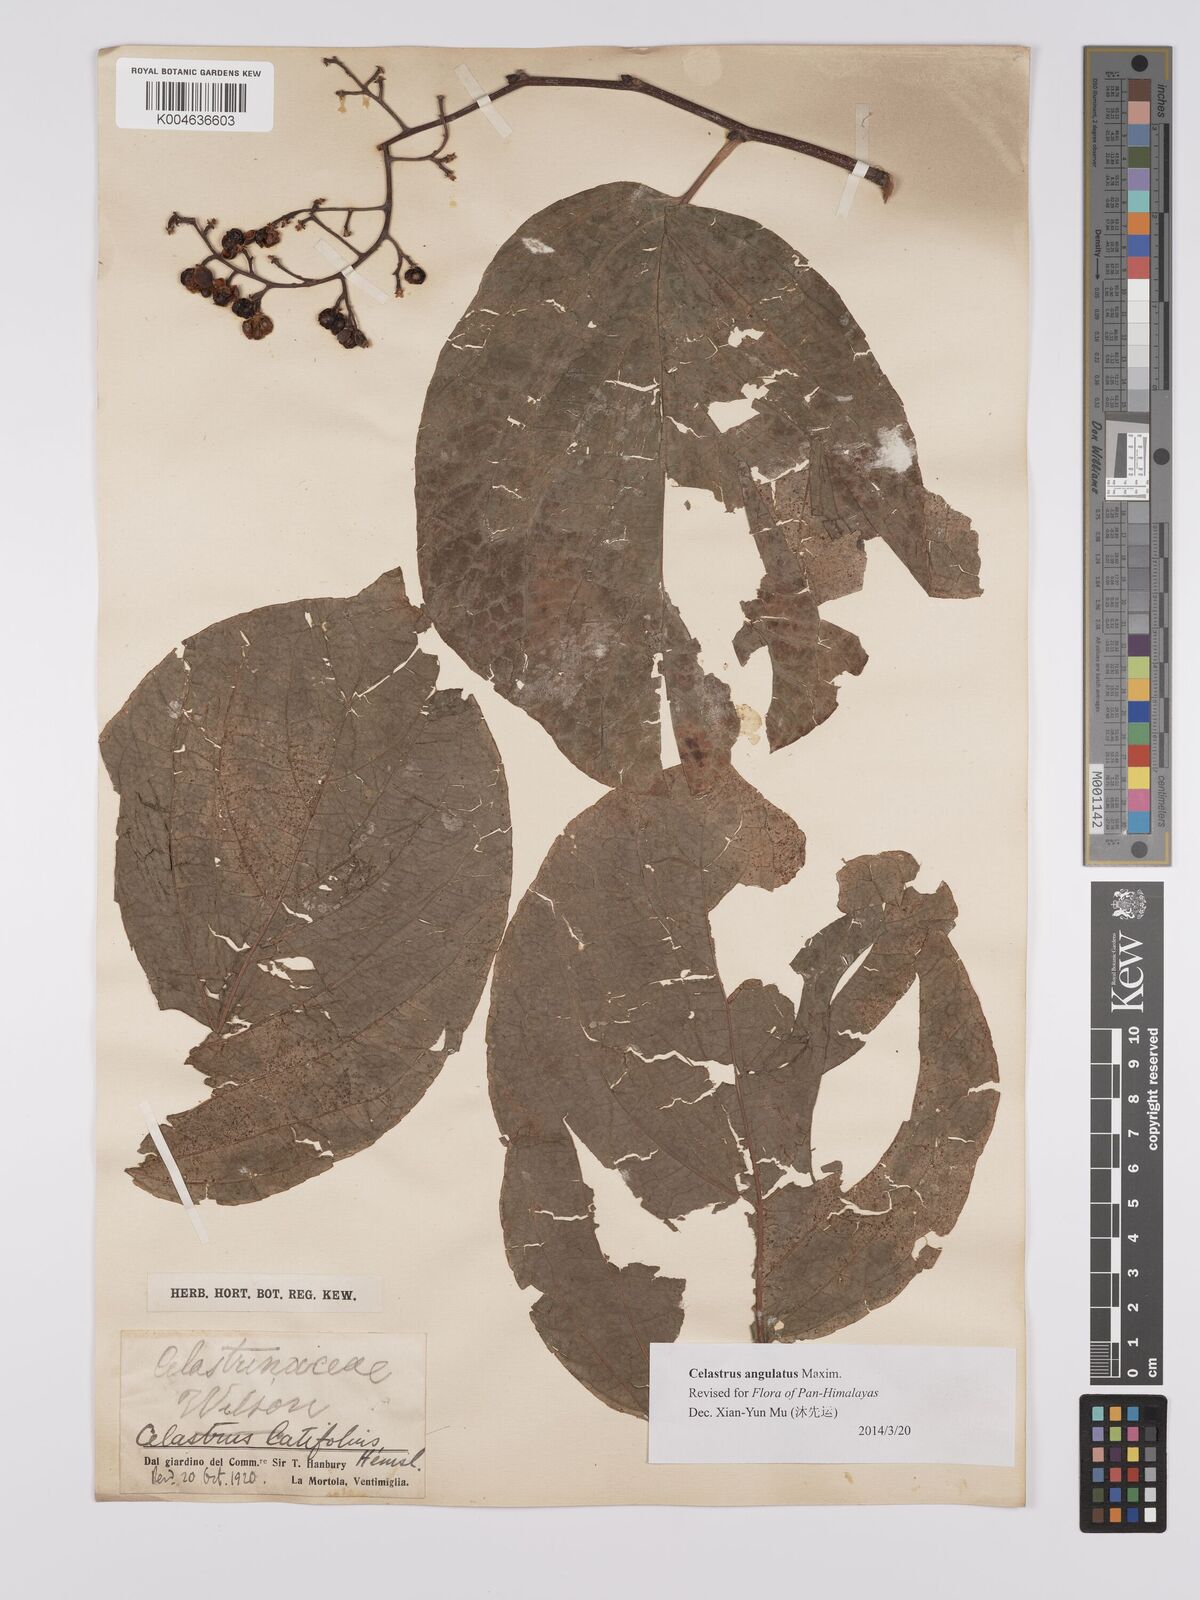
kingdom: Plantae
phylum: Tracheophyta
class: Magnoliopsida
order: Celastrales
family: Celastraceae
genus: Celastrus
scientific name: Celastrus angulatus
